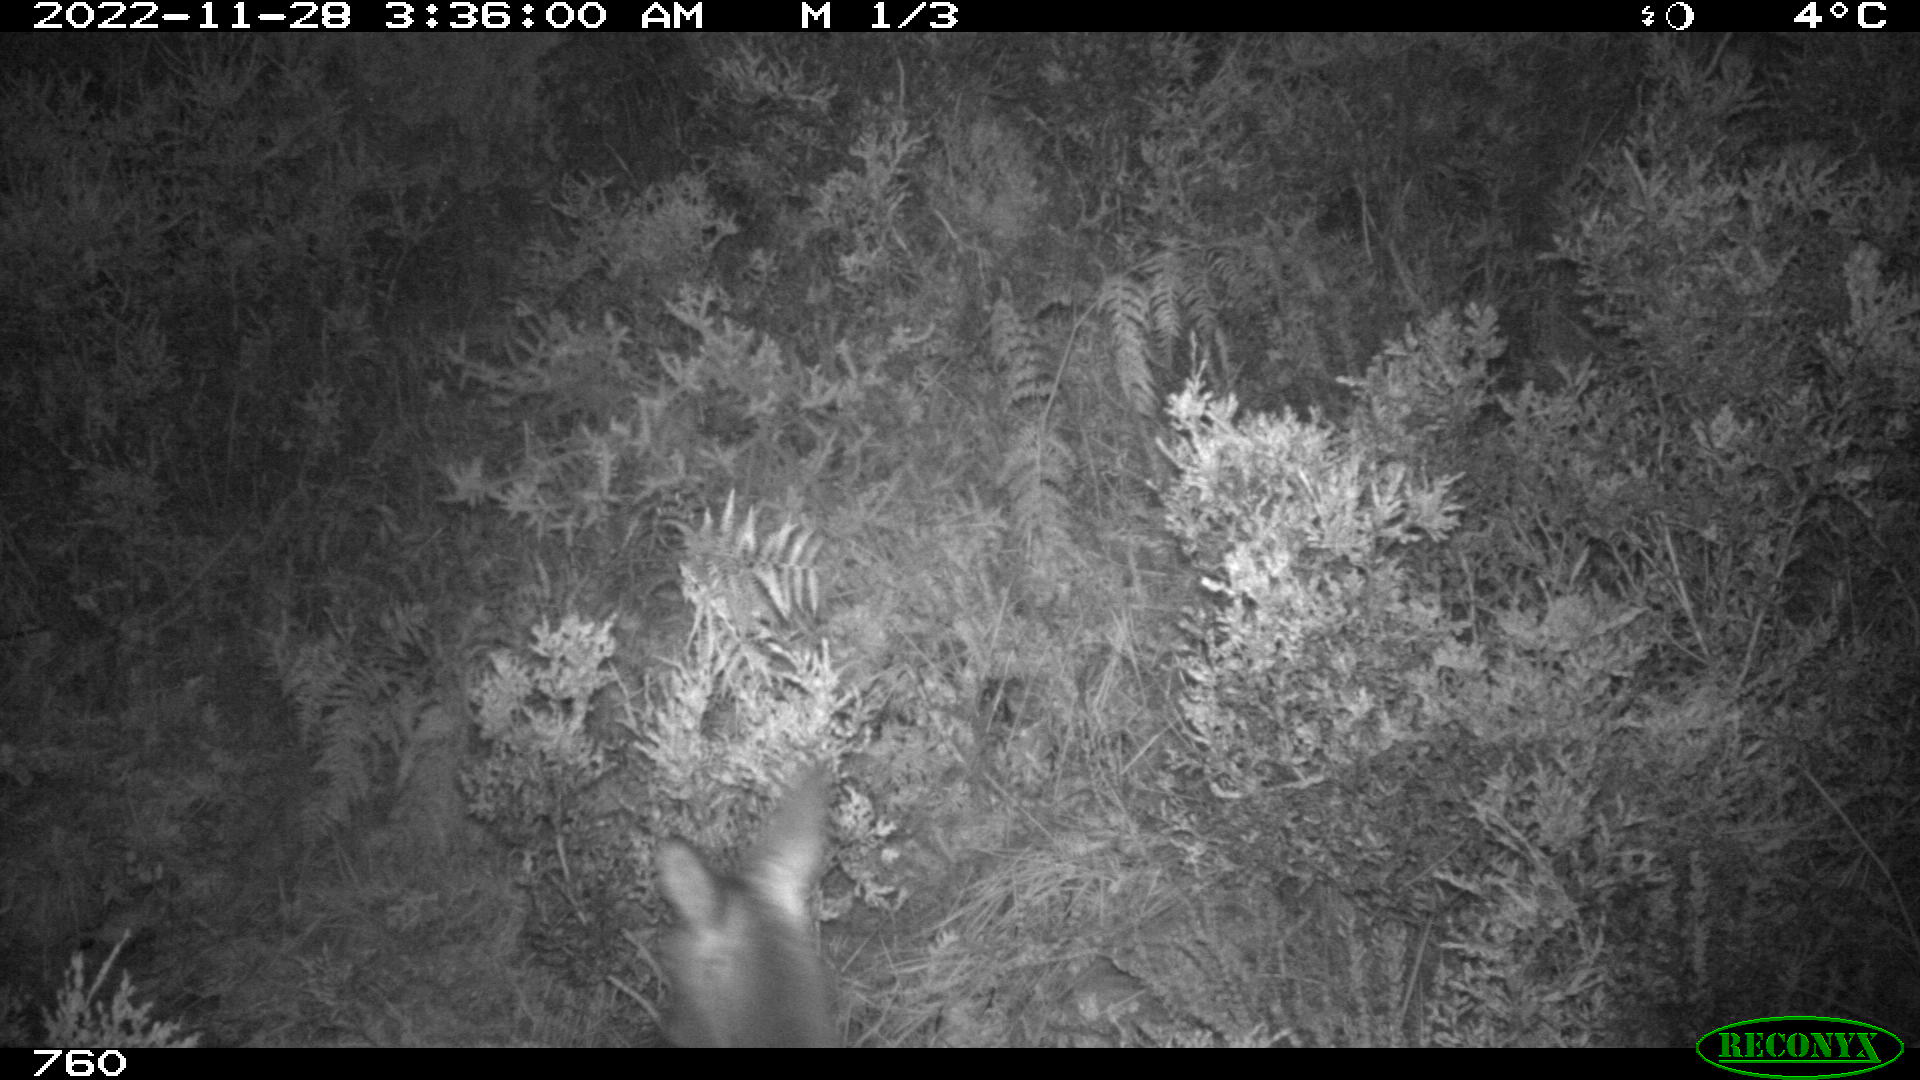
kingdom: Animalia
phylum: Chordata
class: Mammalia
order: Artiodactyla
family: Cervidae
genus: Capreolus
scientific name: Capreolus capreolus
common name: Western roe deer
